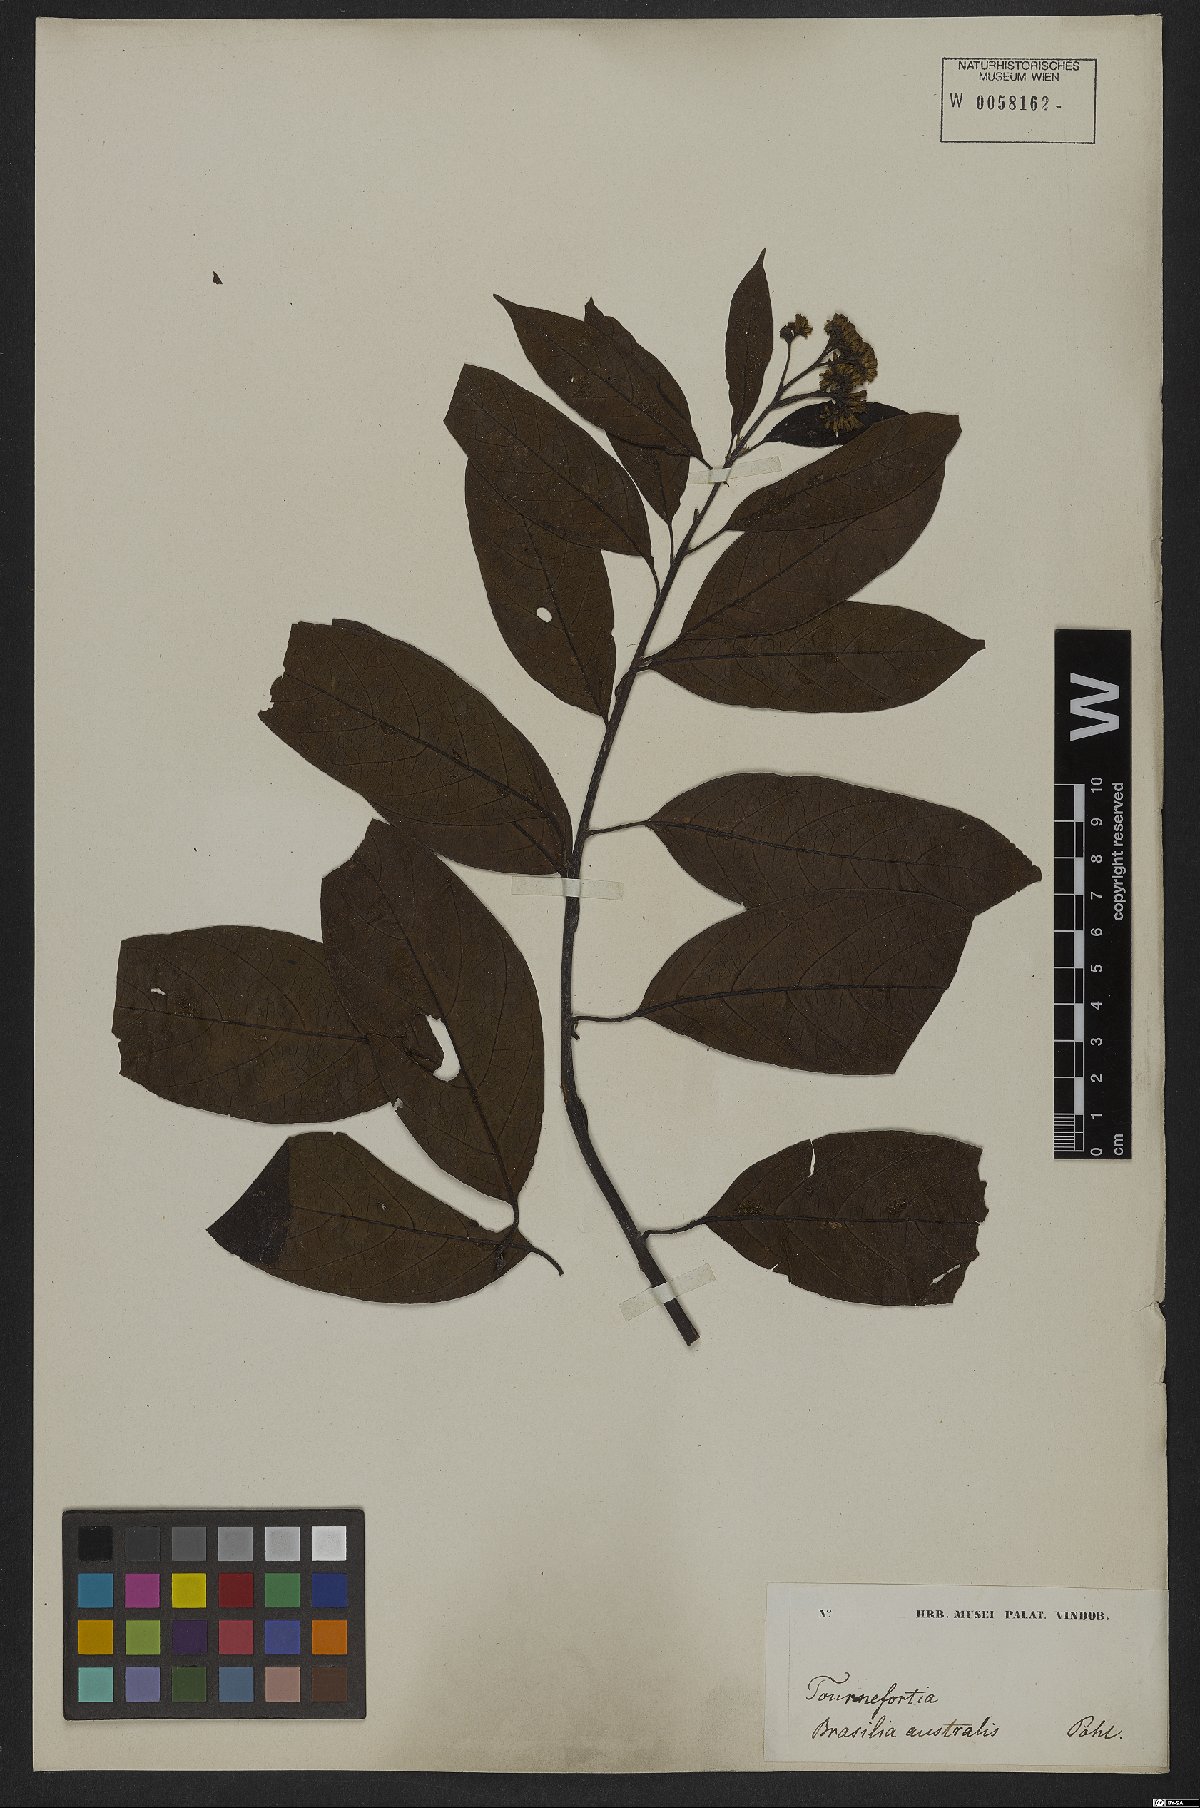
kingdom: Plantae
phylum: Tracheophyta
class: Magnoliopsida
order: Boraginales
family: Heliotropiaceae
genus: Heliotropium
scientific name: Heliotropium verdcourtii
